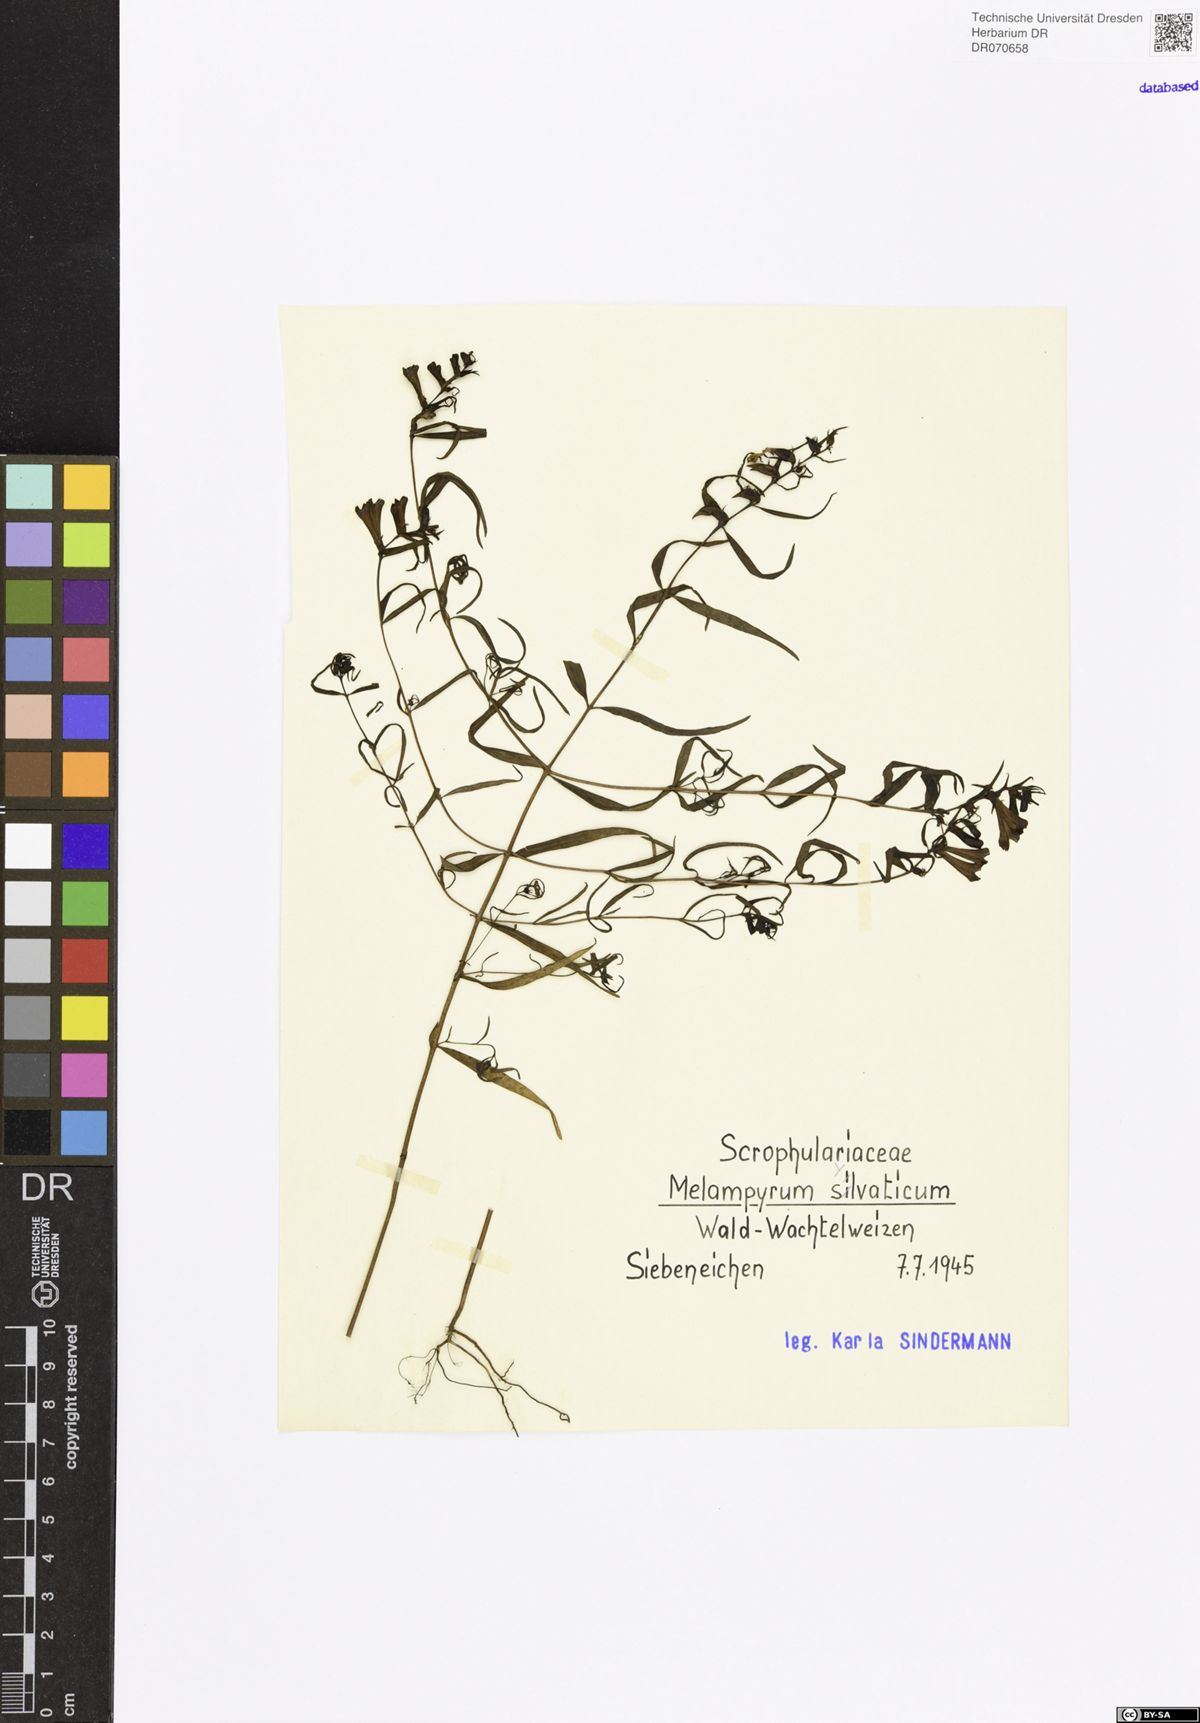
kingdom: Plantae
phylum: Tracheophyta
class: Magnoliopsida
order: Lamiales
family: Orobanchaceae
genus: Melampyrum
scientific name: Melampyrum sylvaticum
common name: Small cow-wheat
